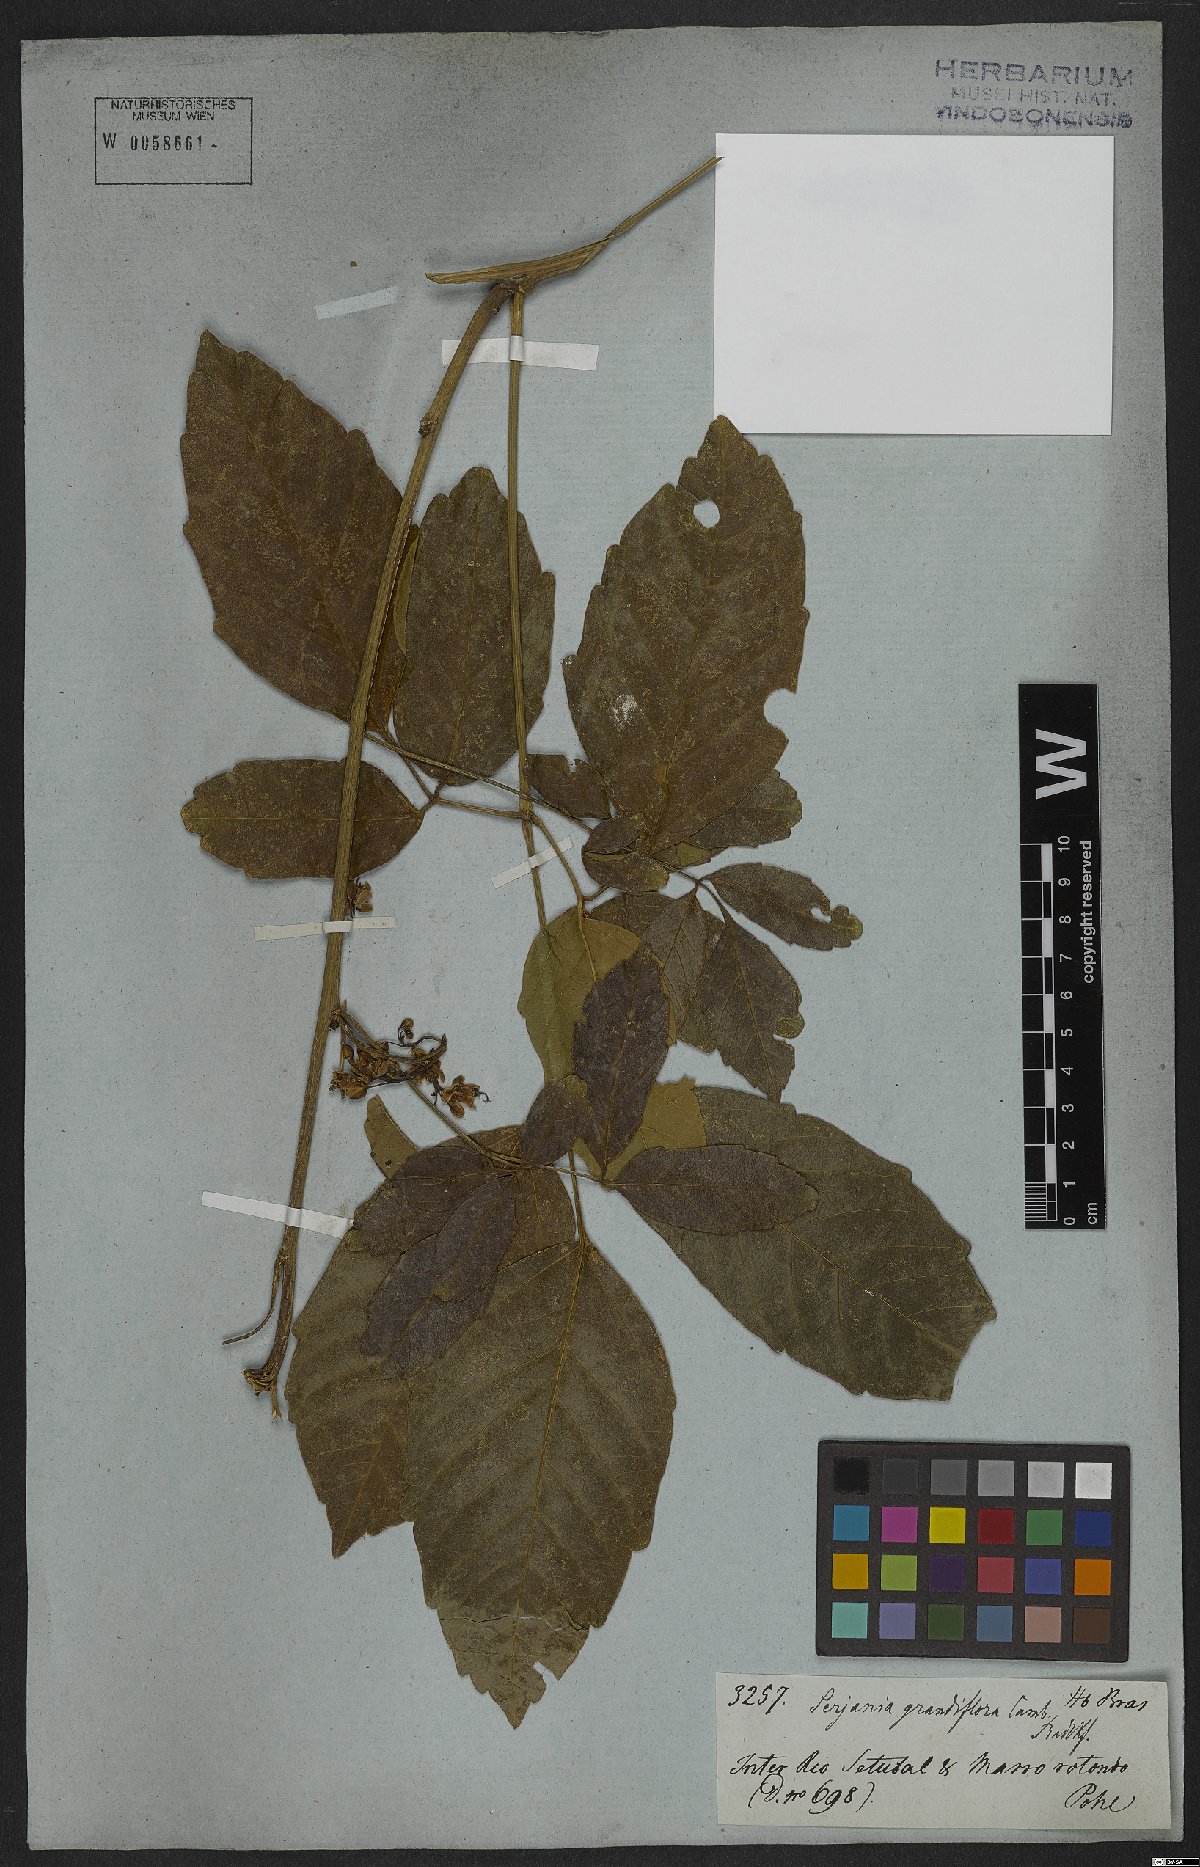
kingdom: Plantae
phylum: Tracheophyta
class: Magnoliopsida
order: Sapindales
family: Sapindaceae
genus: Serjania
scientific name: Serjania caracasana
